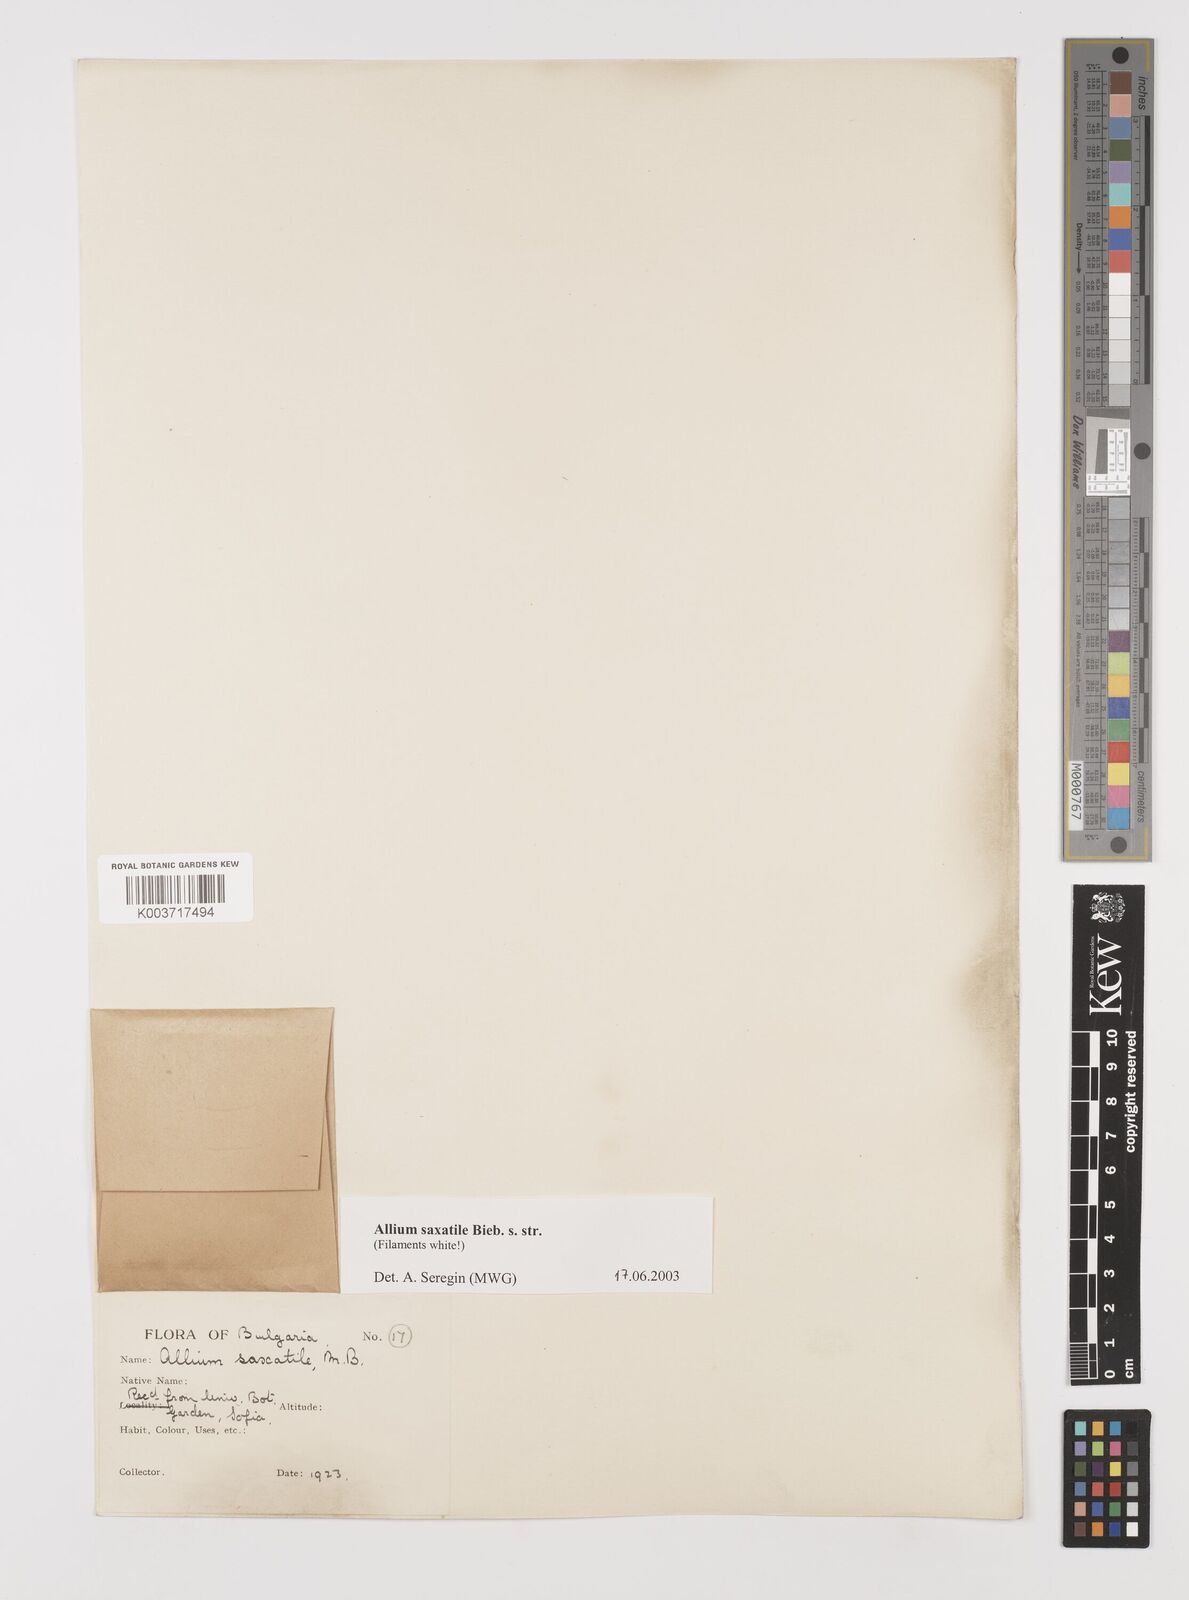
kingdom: Plantae
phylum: Tracheophyta
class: Liliopsida
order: Asparagales
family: Amaryllidaceae
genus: Allium
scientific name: Allium saxatile
